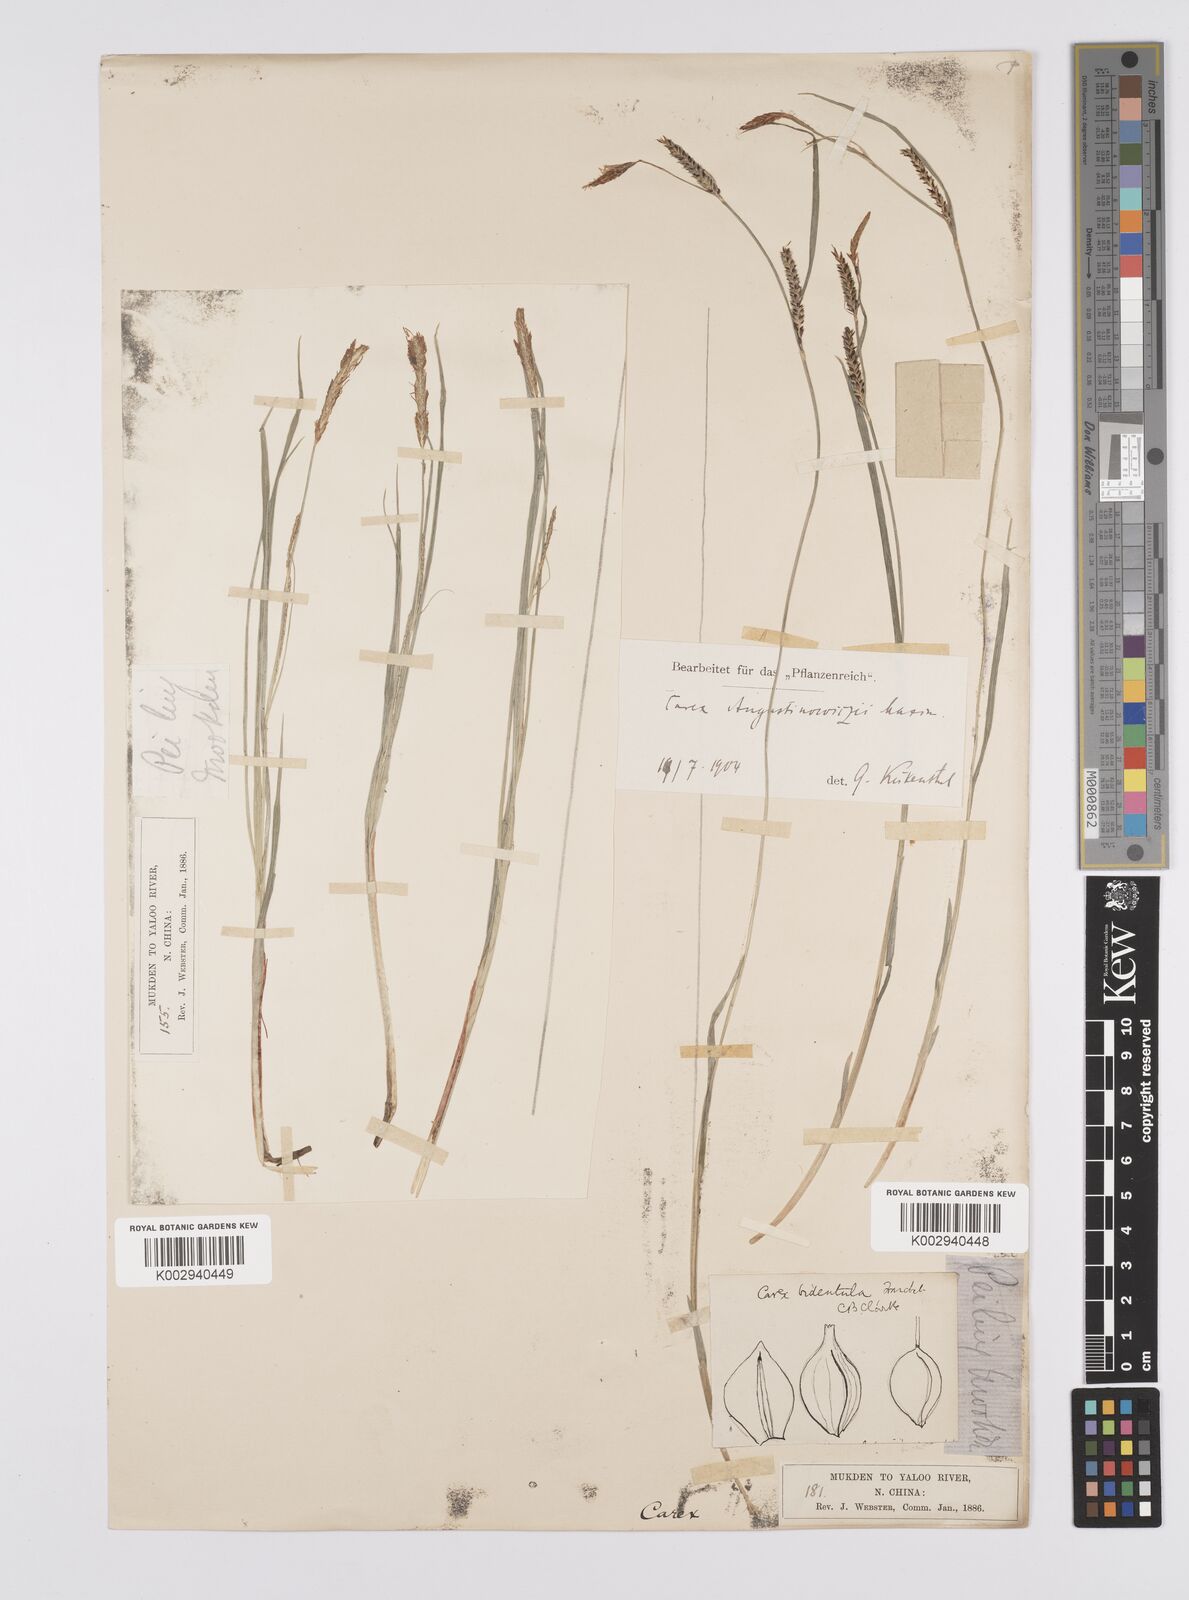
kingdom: Plantae
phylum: Tracheophyta
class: Liliopsida
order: Poales
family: Cyperaceae
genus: Carex
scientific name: Carex augustinowiczii
